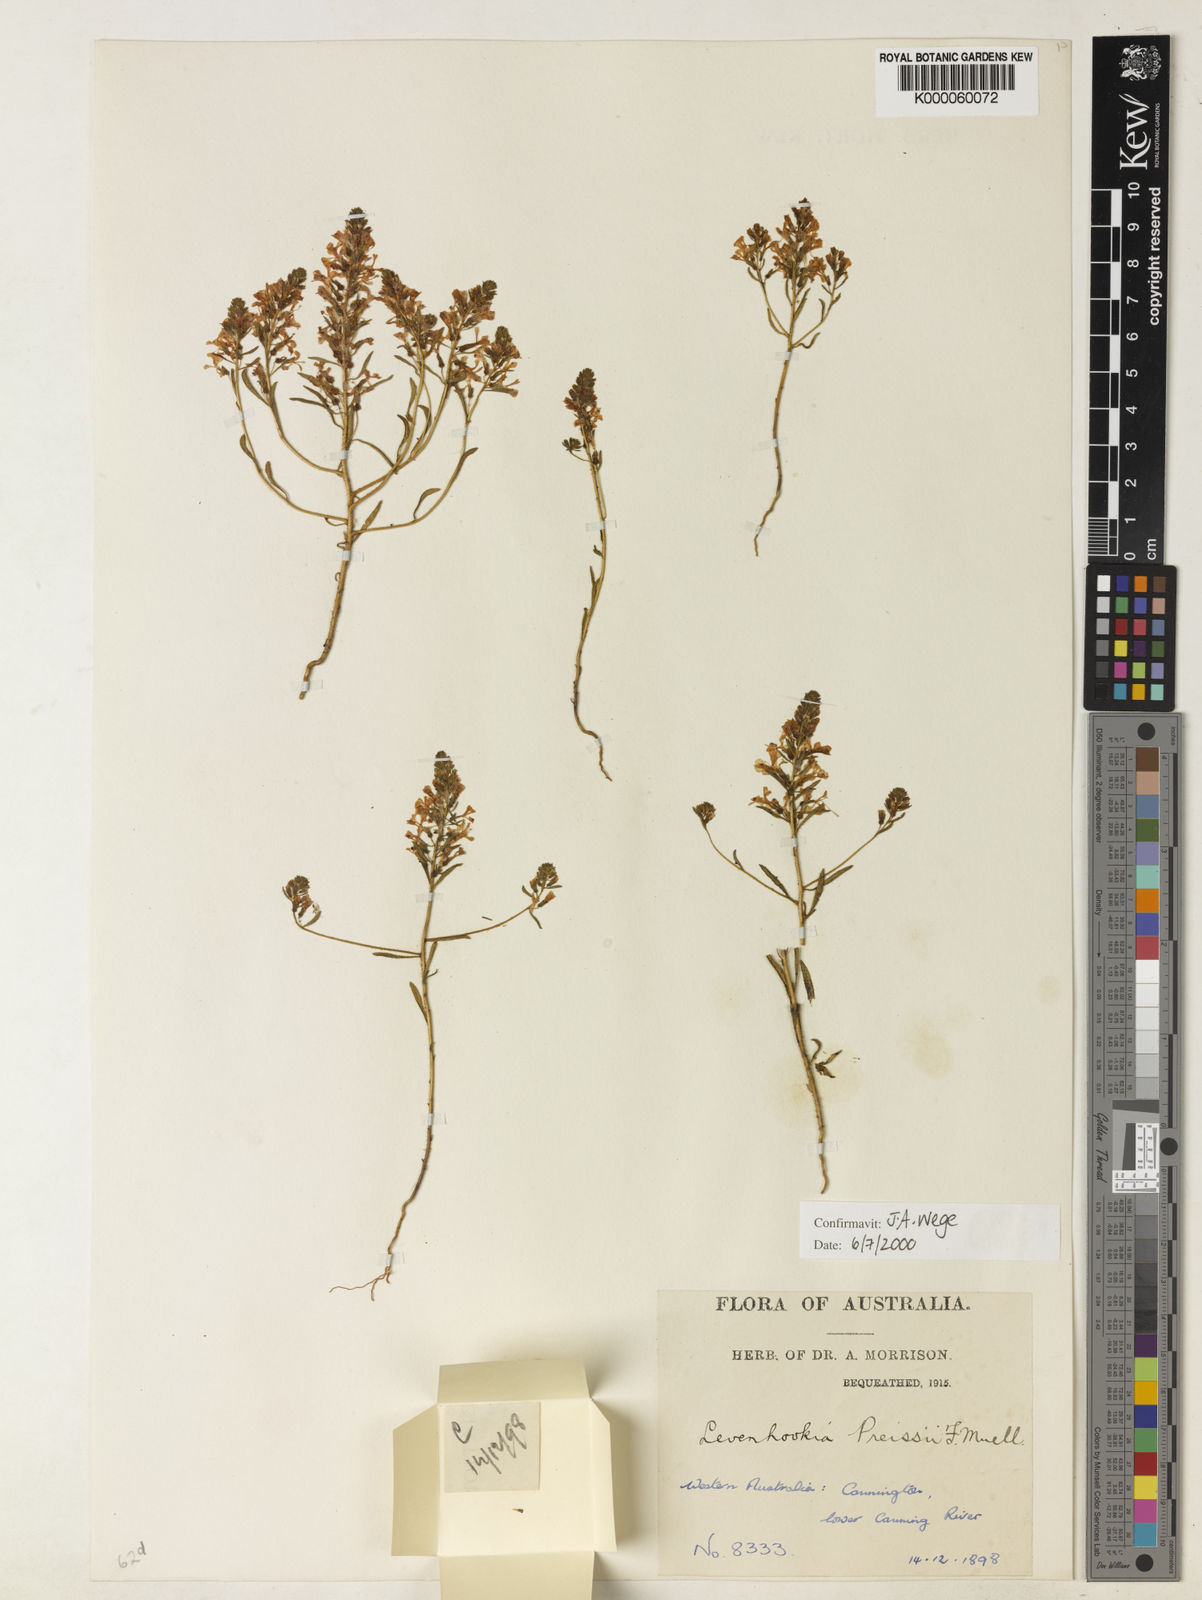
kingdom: Plantae
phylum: Tracheophyta
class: Magnoliopsida
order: Asterales
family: Stylidiaceae
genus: Levenhookia
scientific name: Levenhookia preissii
